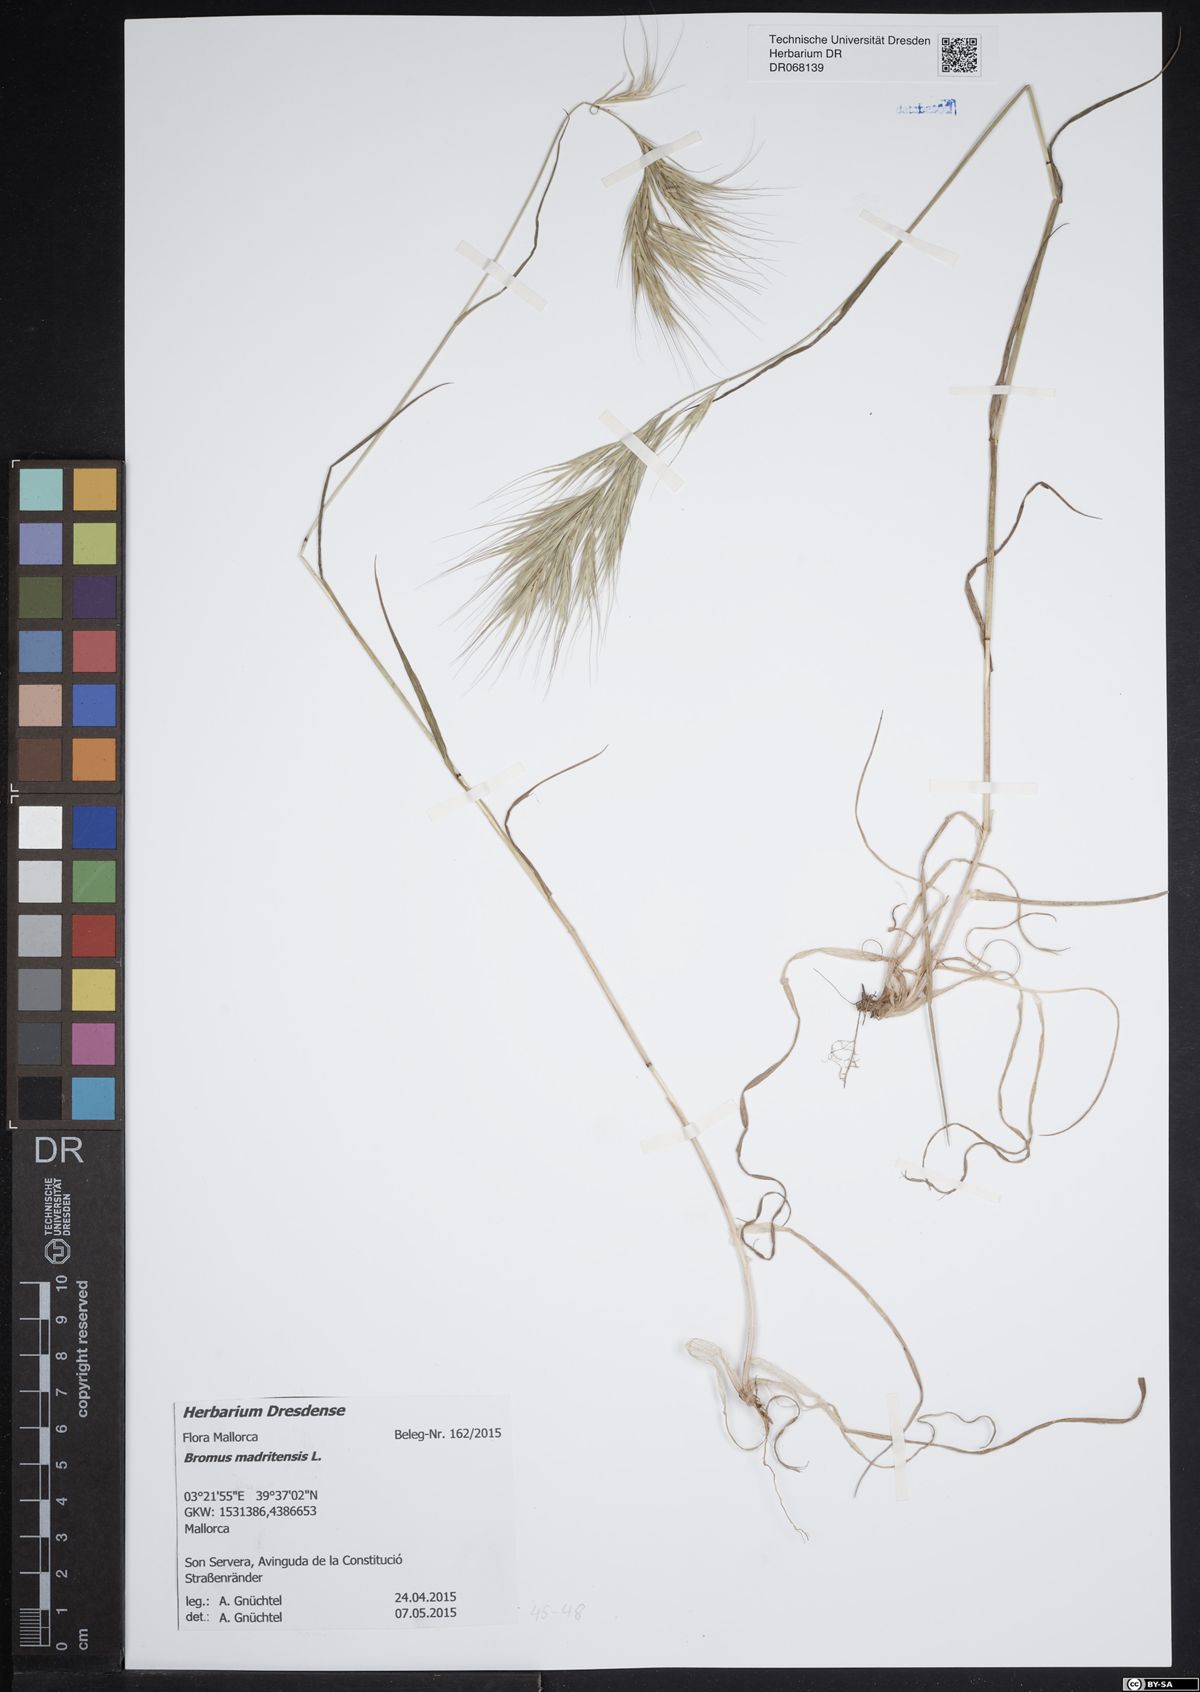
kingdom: Plantae
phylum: Tracheophyta
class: Liliopsida
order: Poales
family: Poaceae
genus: Bromus
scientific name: Bromus madritensis
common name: Compact brome
